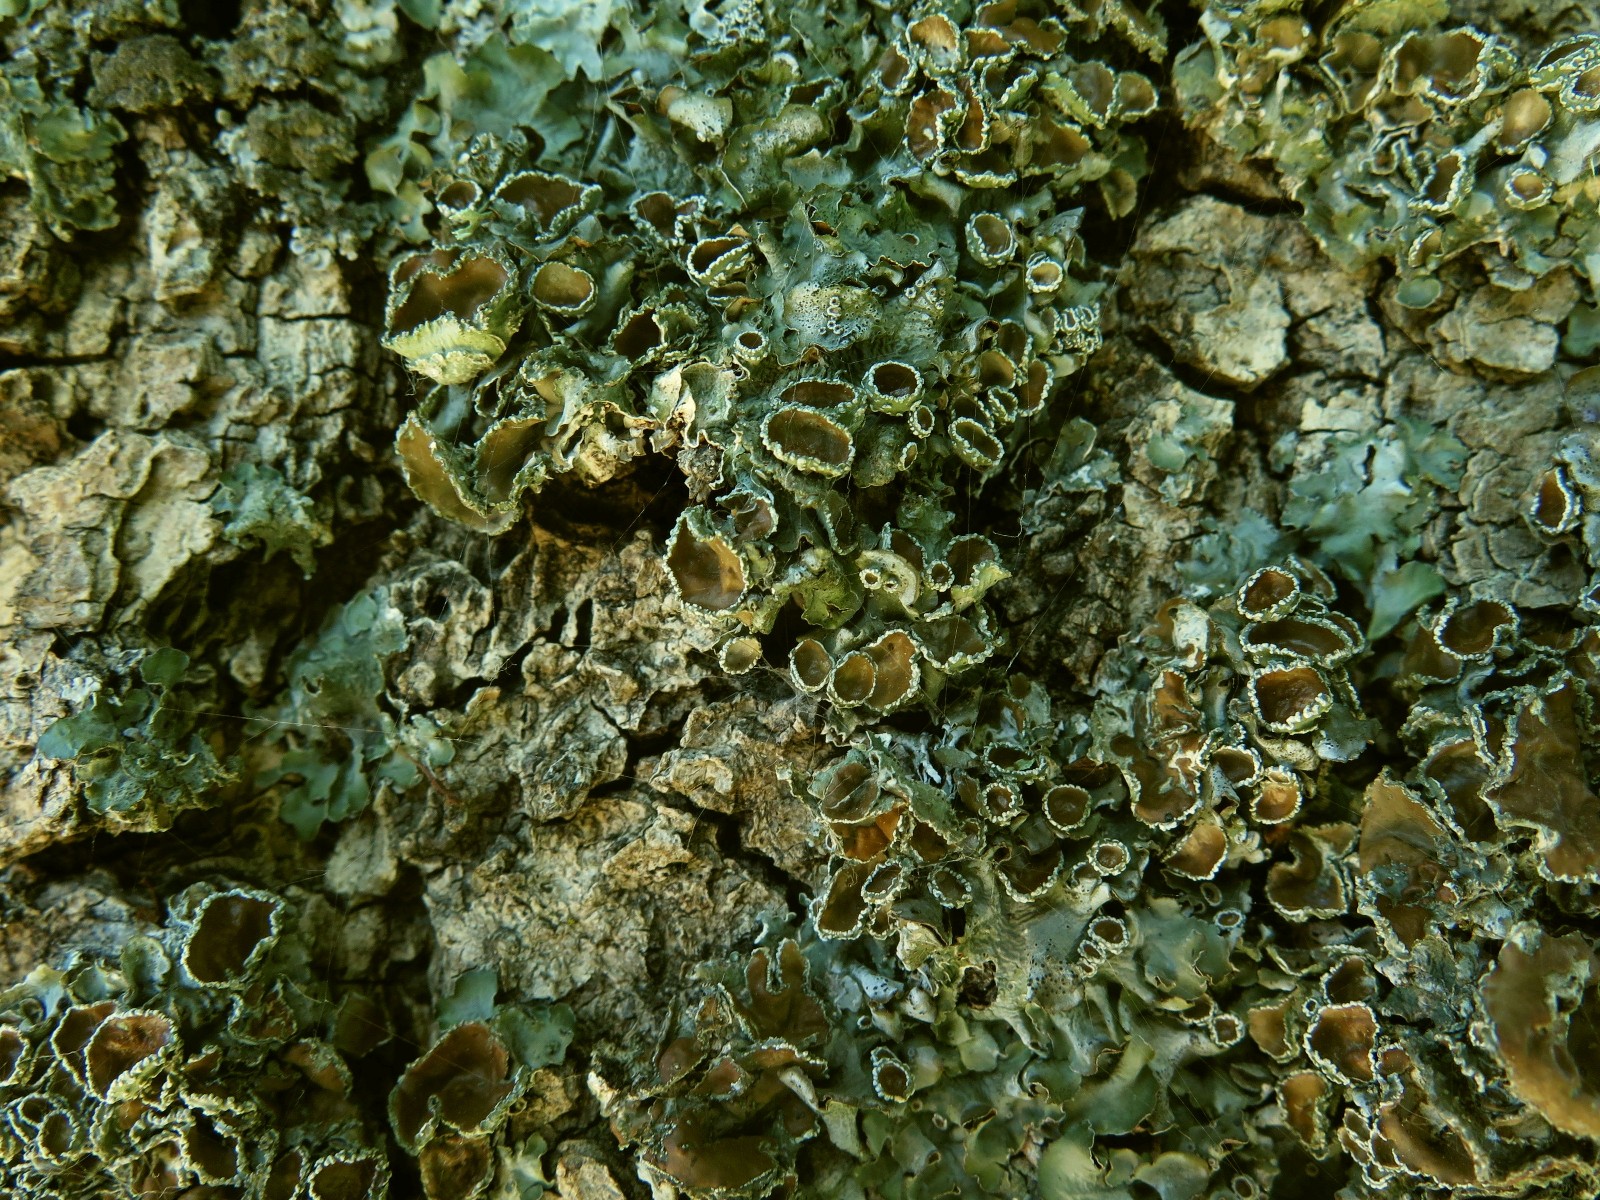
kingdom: Fungi
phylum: Ascomycota
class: Lecanoromycetes
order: Lecanorales
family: Parmeliaceae
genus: Pleurosticta
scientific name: Pleurosticta acetabulum
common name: stor skållav
